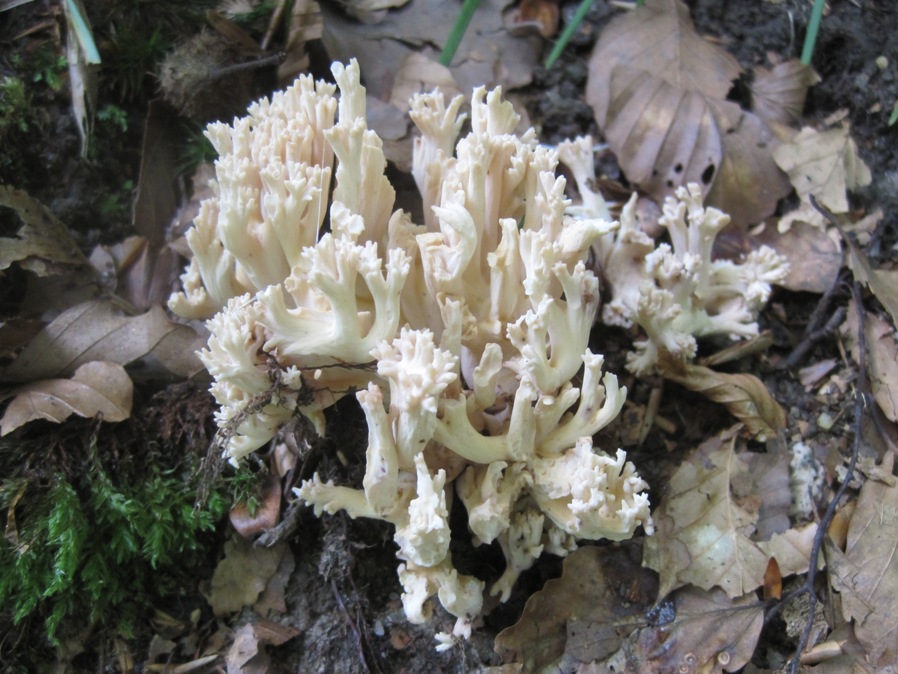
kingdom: Fungi
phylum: Basidiomycota
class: Agaricomycetes
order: Gomphales
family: Gomphaceae
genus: Ramaria
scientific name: Ramaria
